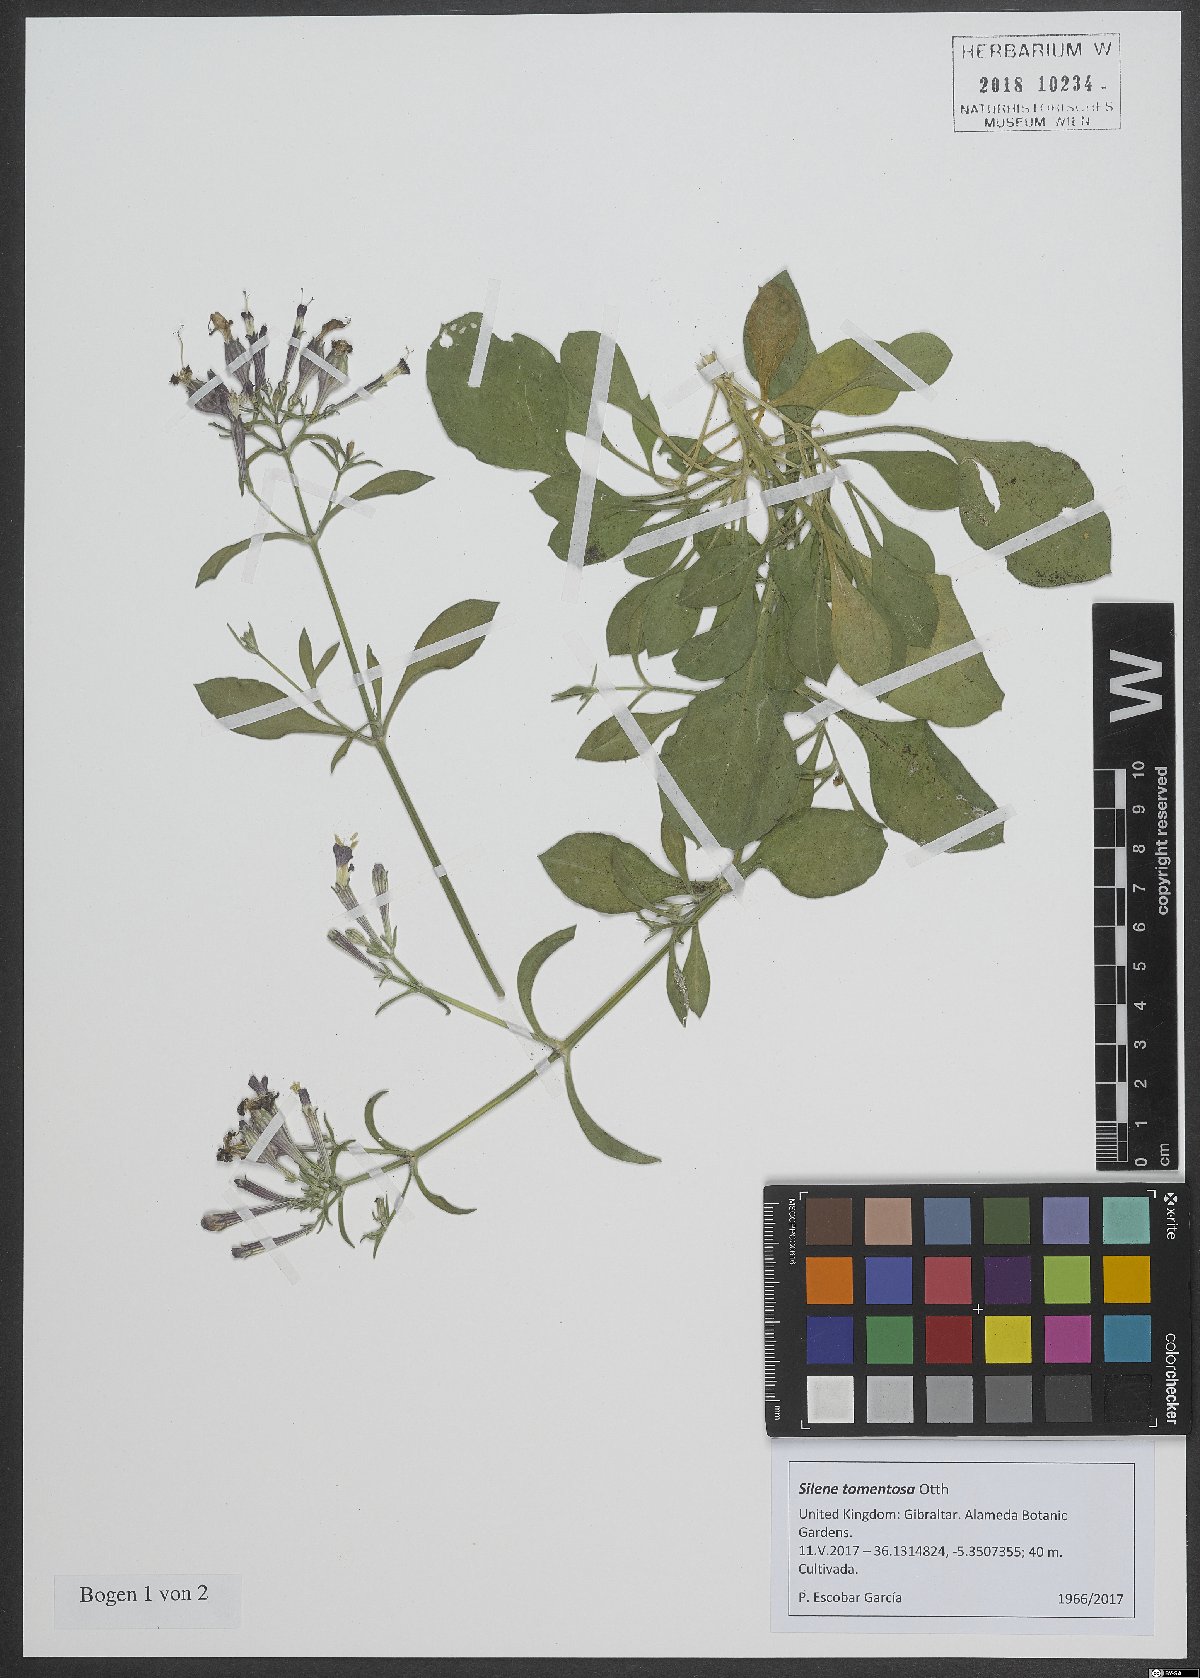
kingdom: Plantae
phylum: Tracheophyta
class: Magnoliopsida
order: Caryophyllales
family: Caryophyllaceae
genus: Silene
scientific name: Silene tomentosa
